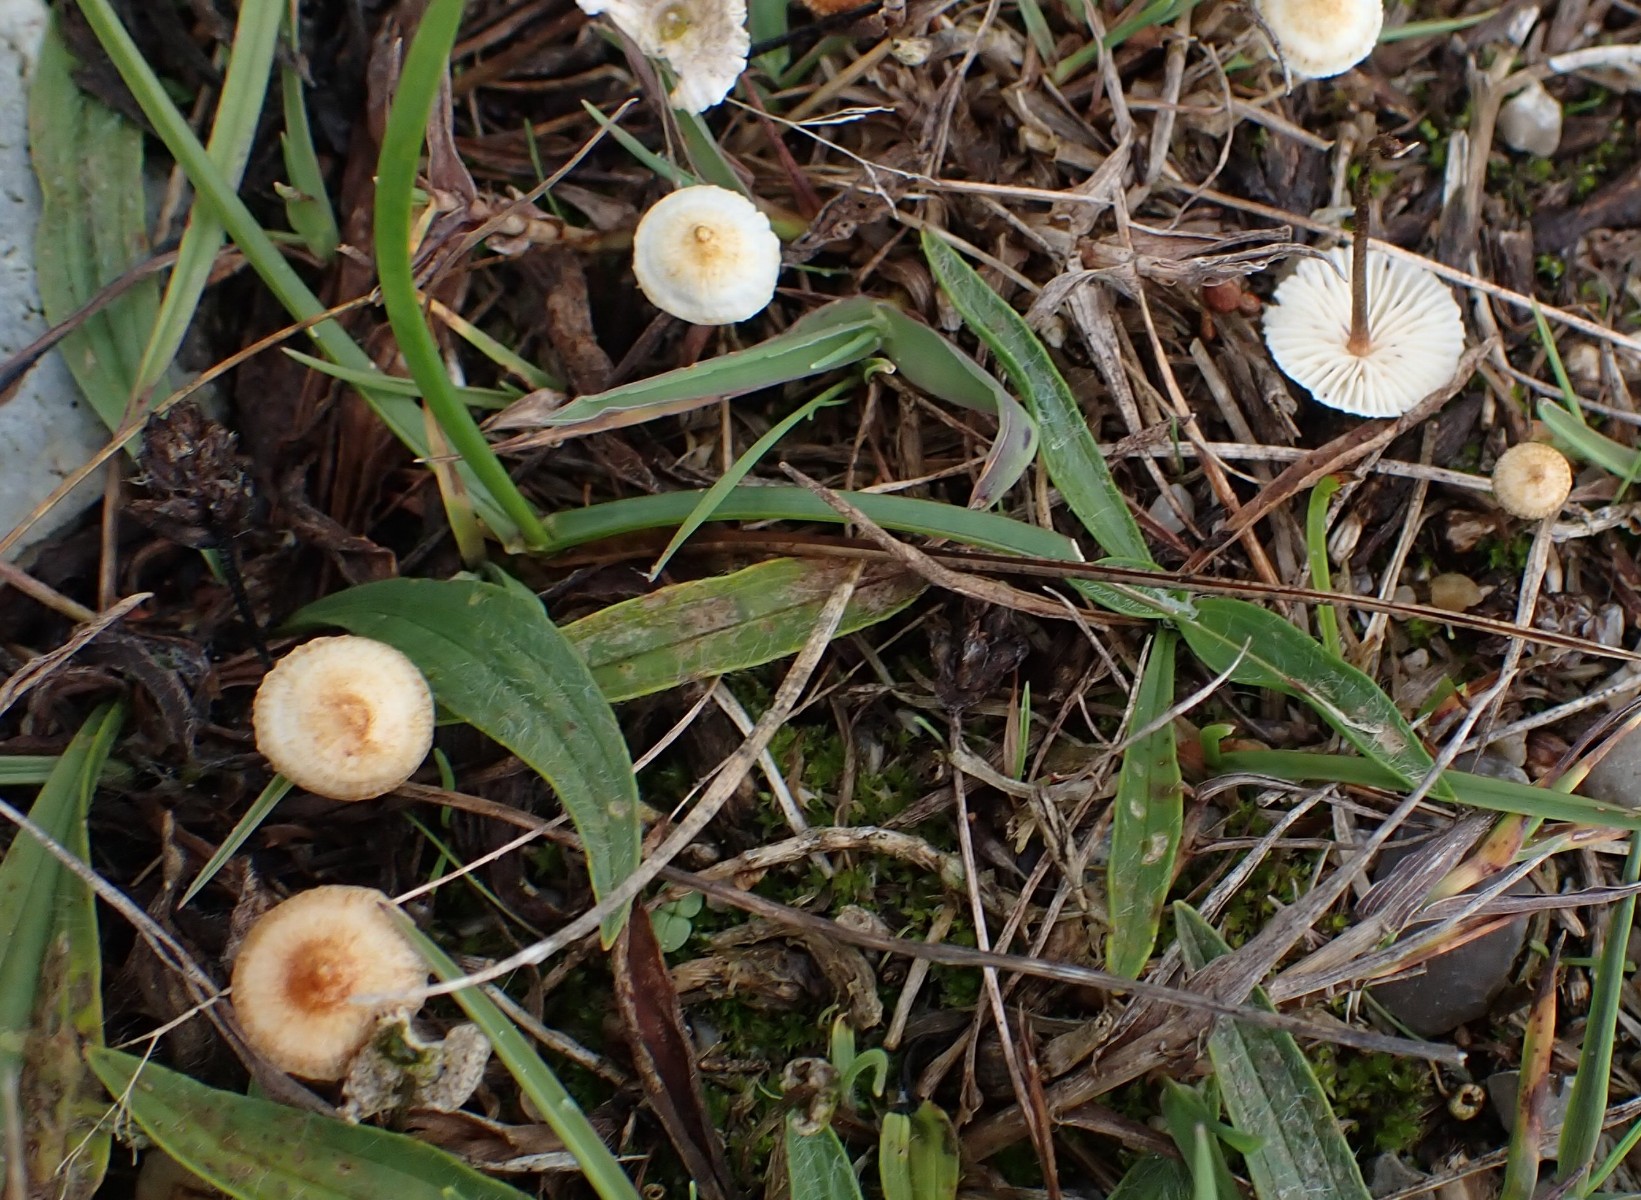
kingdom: Fungi
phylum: Basidiomycota
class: Agaricomycetes
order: Agaricales
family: Marasmiaceae
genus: Crinipellis
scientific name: Crinipellis scabella
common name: børstefod
